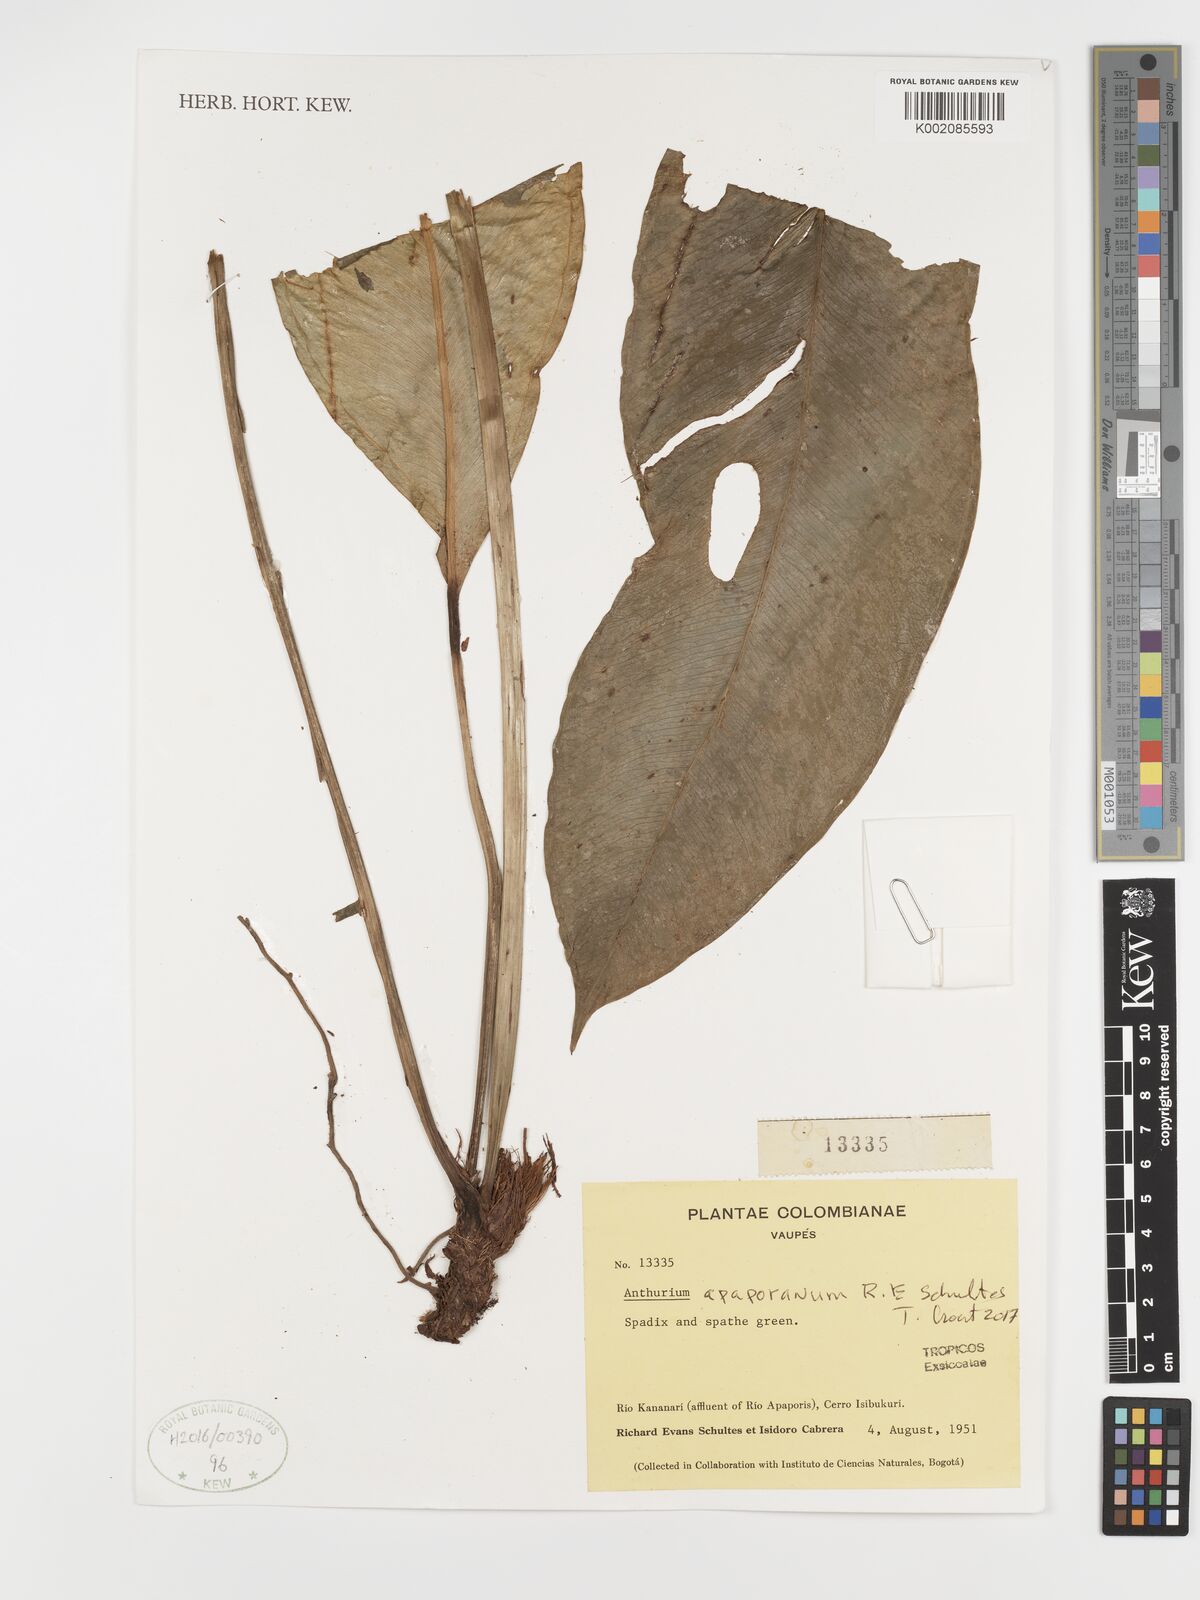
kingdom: Plantae
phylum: Tracheophyta
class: Liliopsida
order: Alismatales
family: Araceae
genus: Anthurium
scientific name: Anthurium apaporanum
